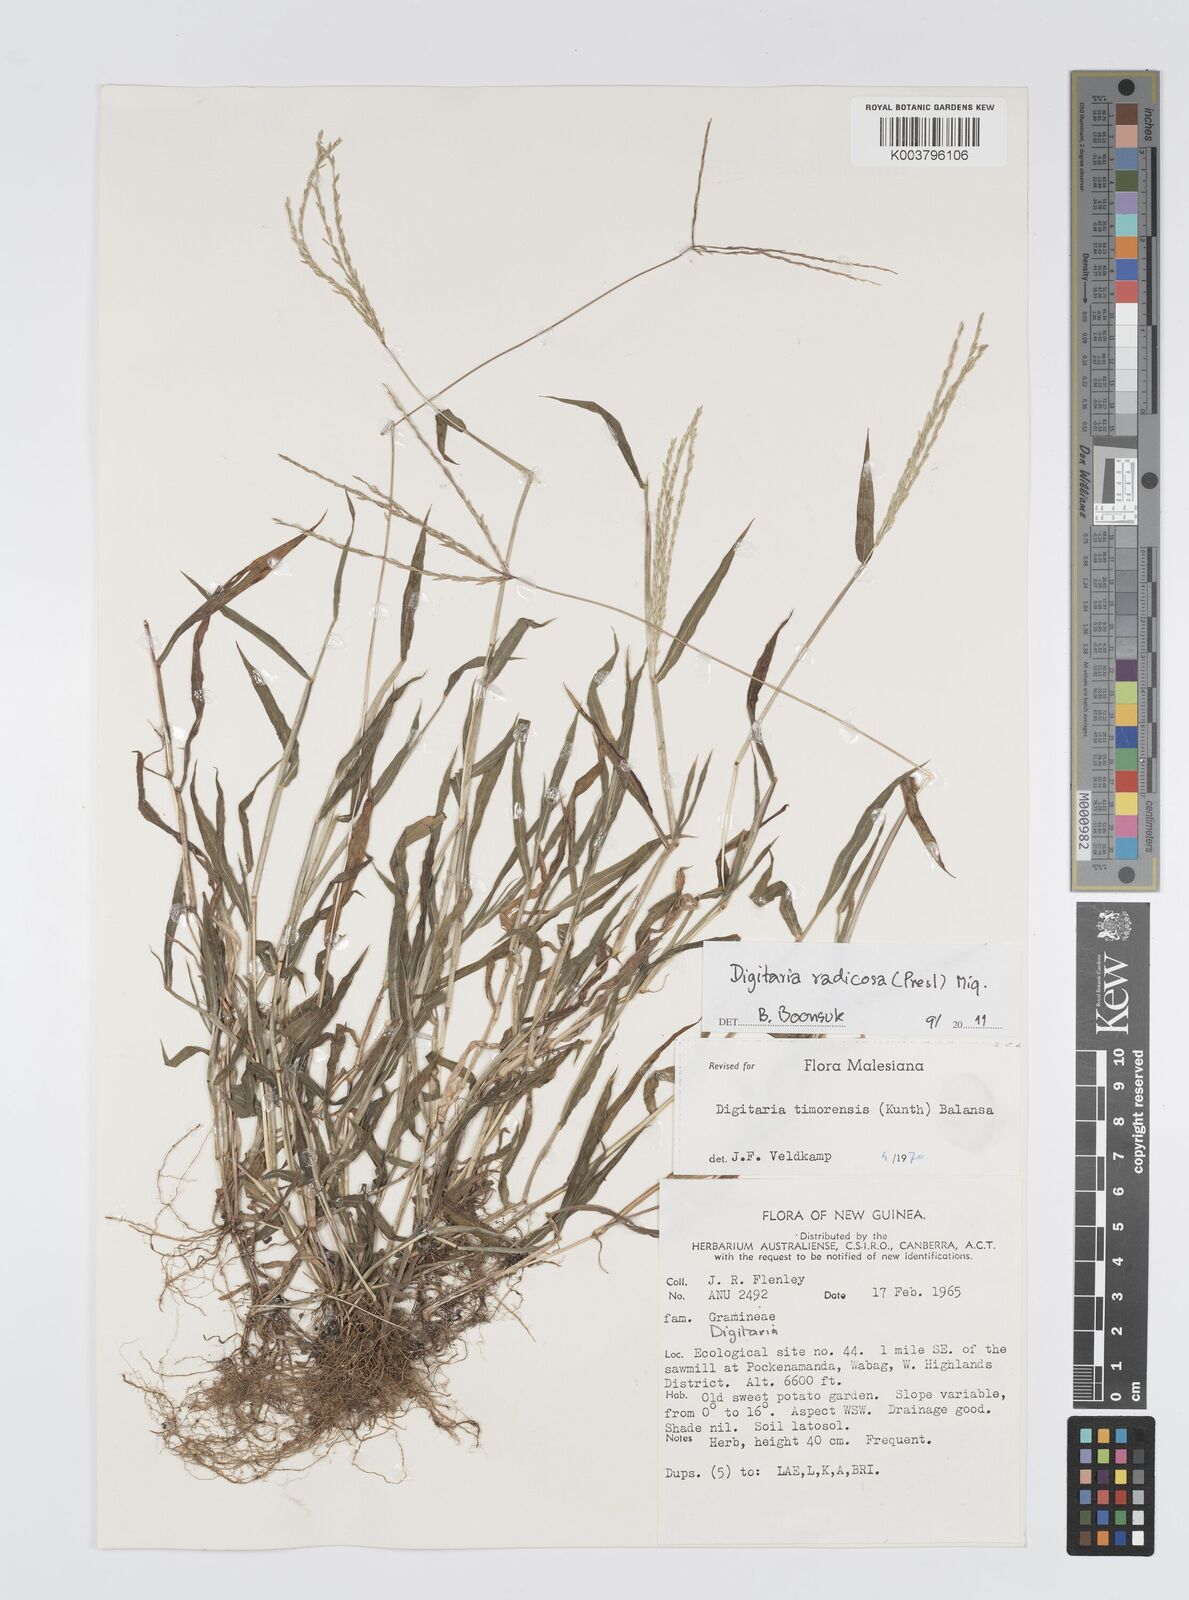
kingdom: Plantae
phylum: Tracheophyta
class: Liliopsida
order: Poales
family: Poaceae
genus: Digitaria
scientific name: Digitaria radicosa
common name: Trailing crabgrass
